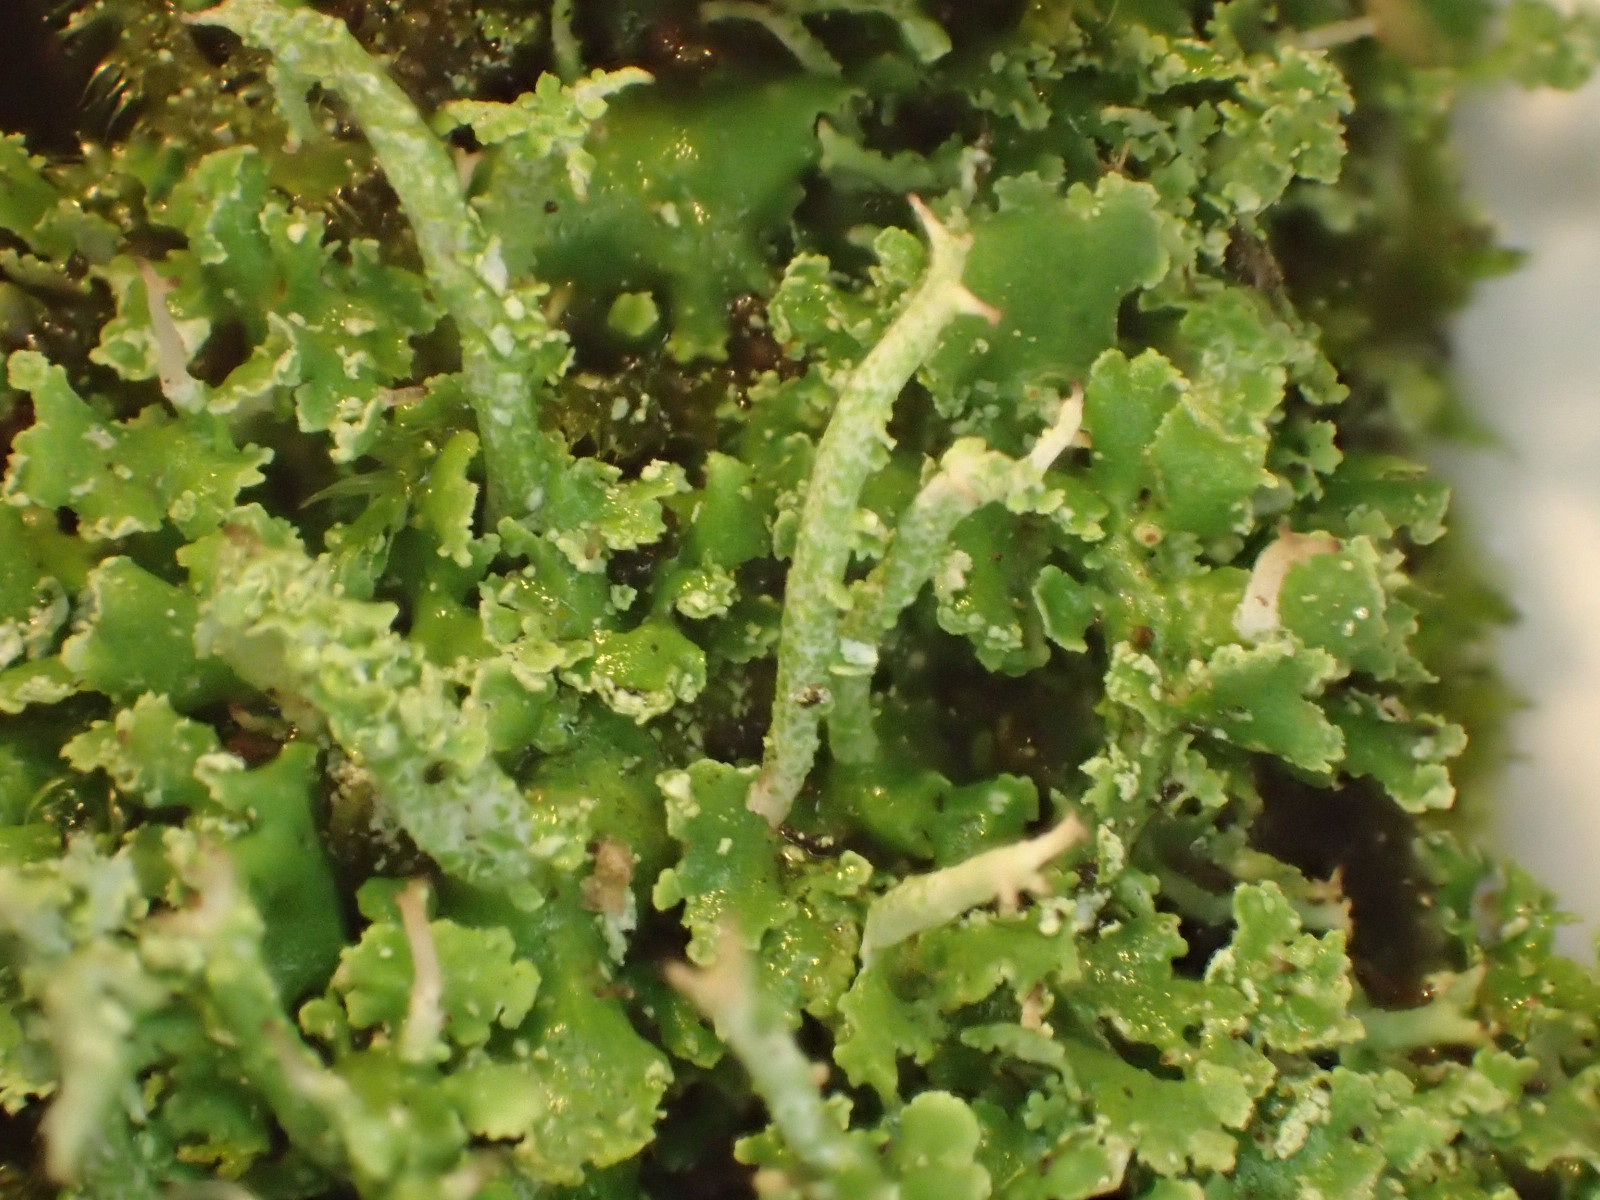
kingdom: Fungi
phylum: Ascomycota
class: Lecanoromycetes
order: Lecanorales
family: Cladoniaceae
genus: Cladonia
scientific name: Cladonia scabriuscula
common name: ru bægerlav
